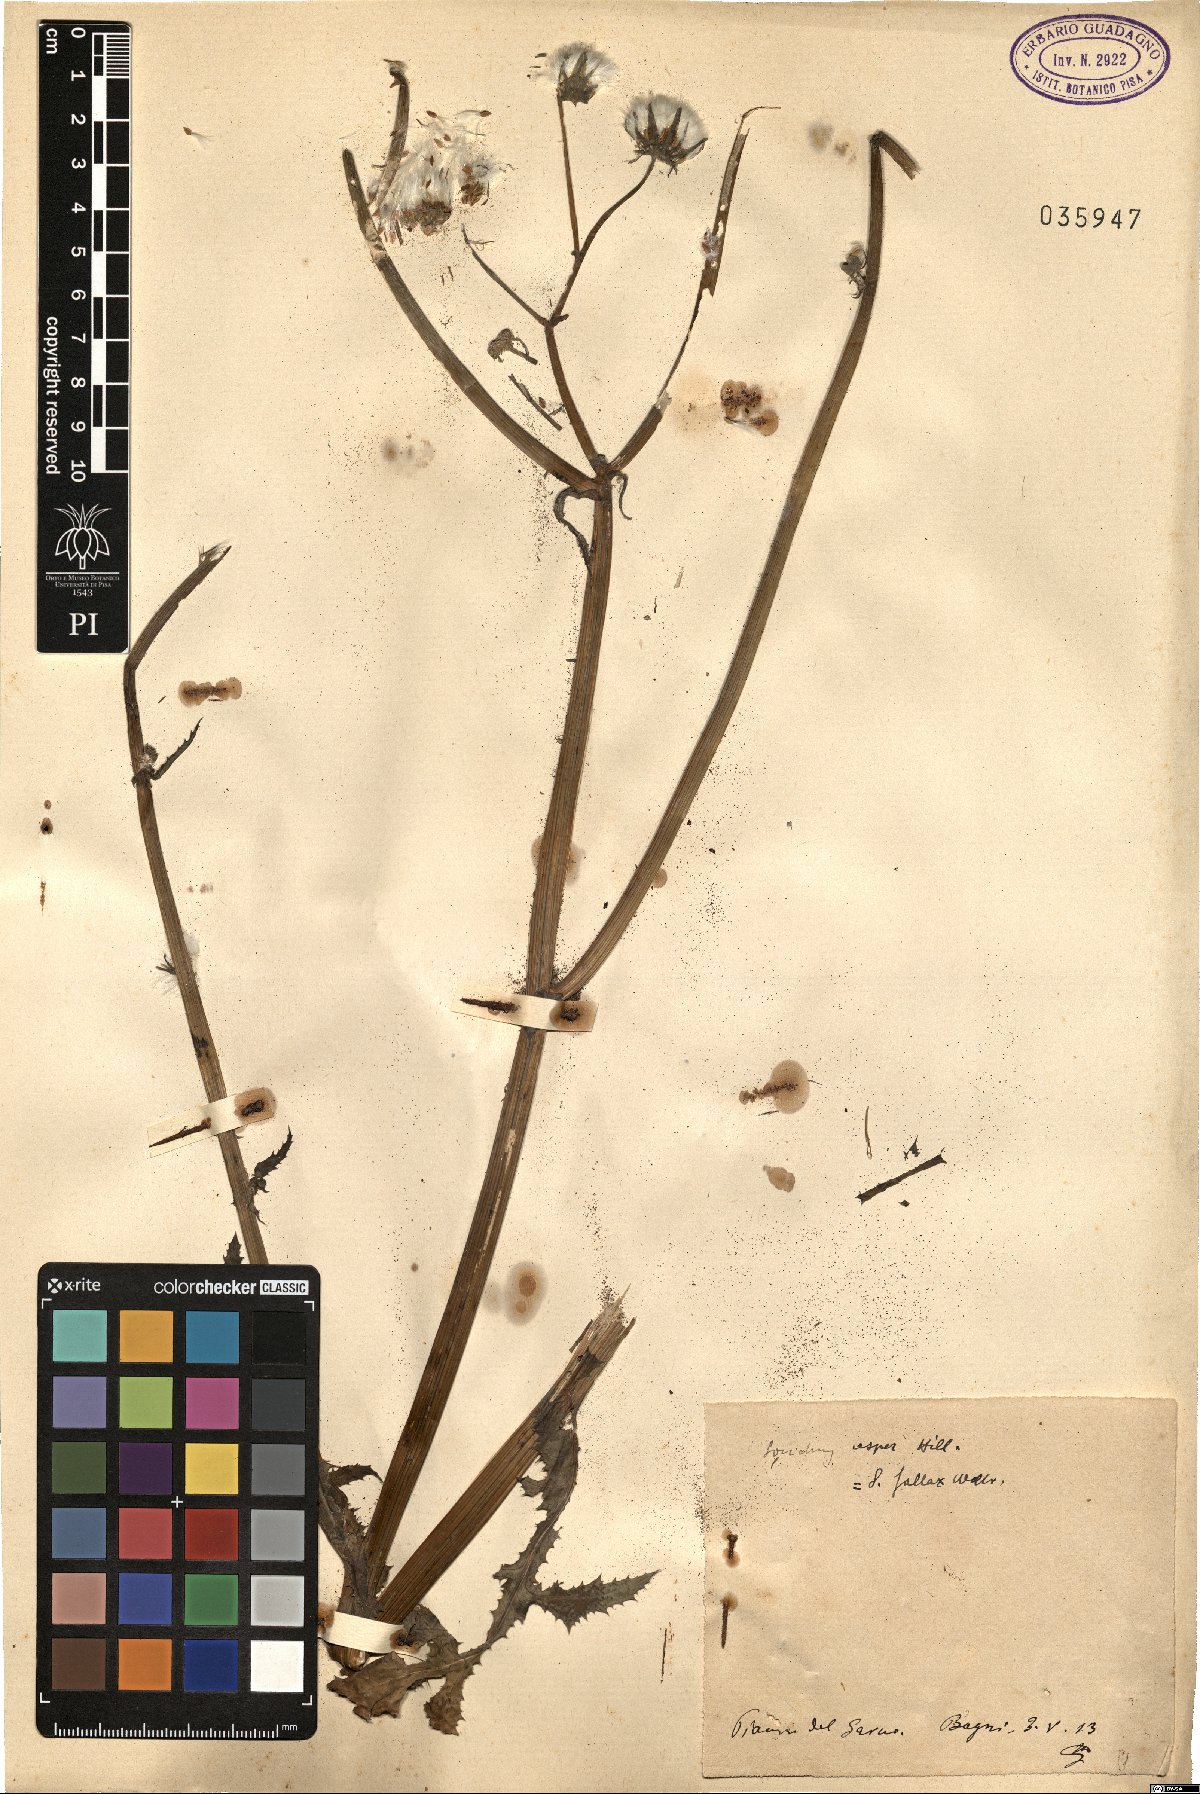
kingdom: Plantae
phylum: Tracheophyta
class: Magnoliopsida
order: Asterales
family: Asteraceae
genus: Sonchus
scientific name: Sonchus asper
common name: Prickly sow-thistle
